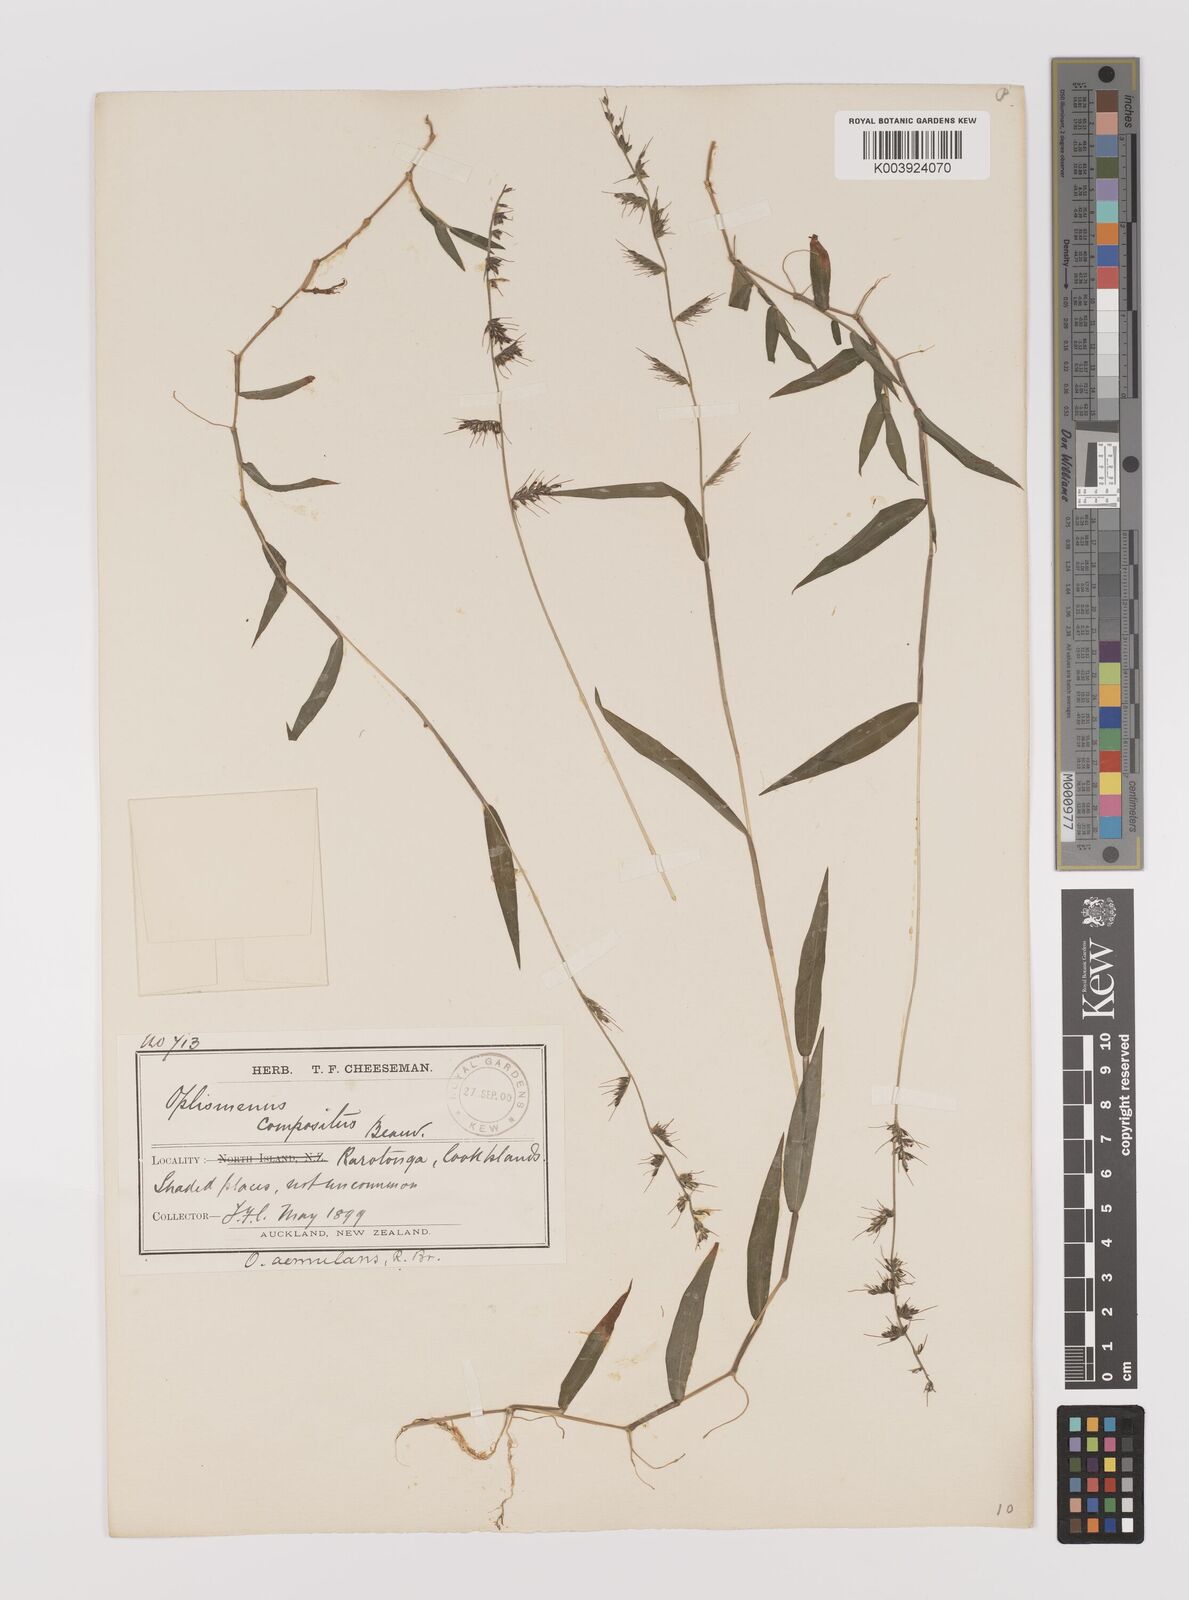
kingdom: Plantae
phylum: Tracheophyta
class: Liliopsida
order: Poales
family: Poaceae
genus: Oplismenus
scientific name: Oplismenus hirtellus
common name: Basketgrass
